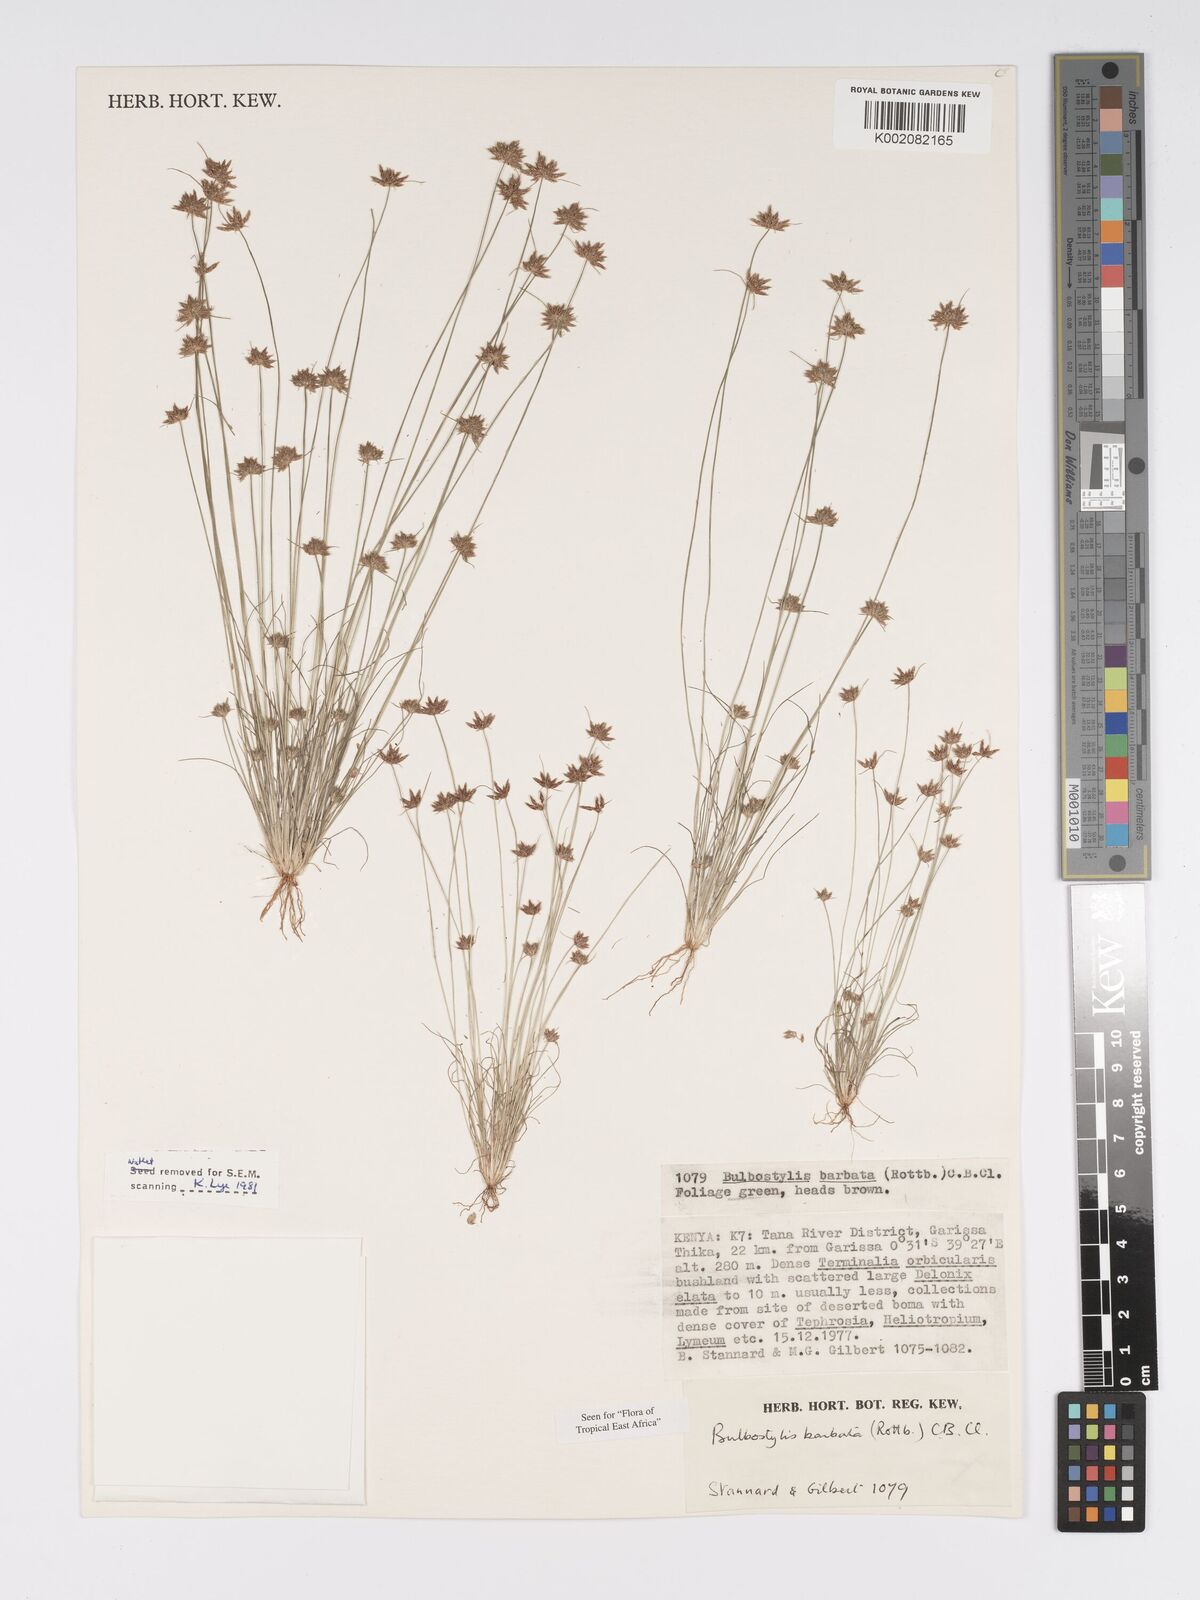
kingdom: Plantae
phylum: Tracheophyta
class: Liliopsida
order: Poales
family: Cyperaceae
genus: Bulbostylis
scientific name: Bulbostylis barbata
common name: Watergrass
